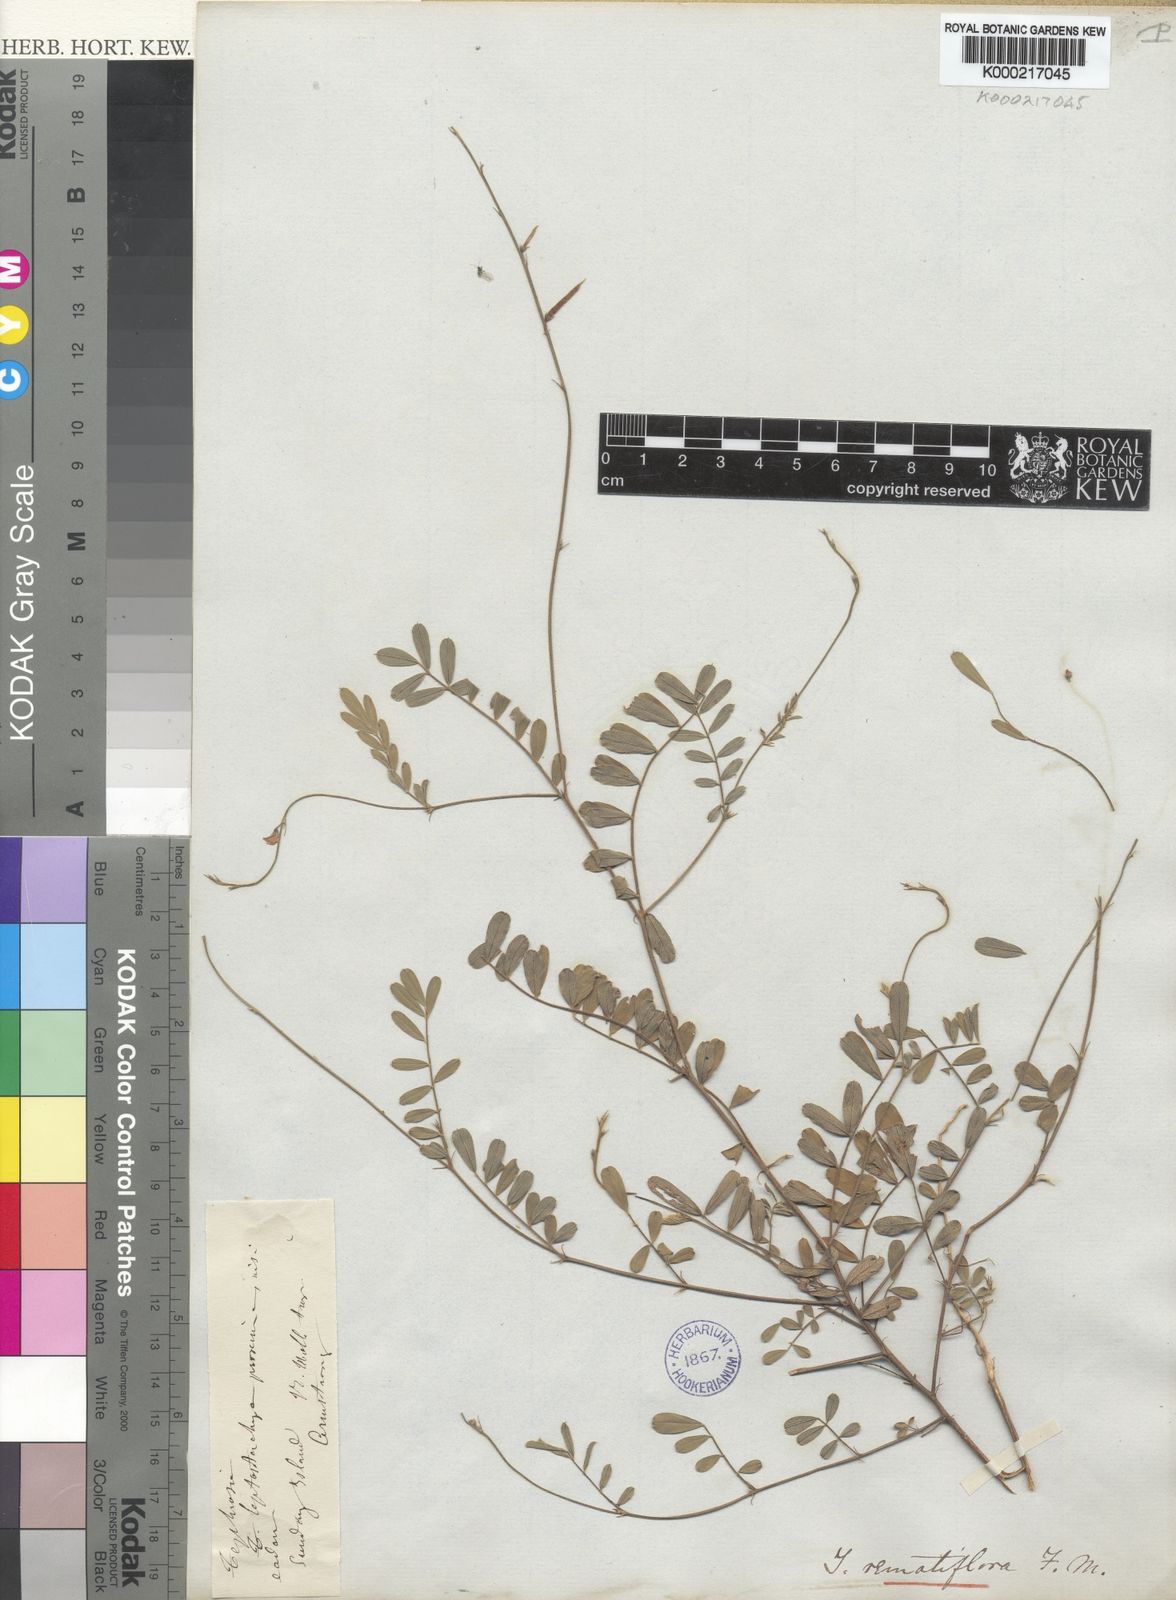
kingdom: Plantae
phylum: Tracheophyta
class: Magnoliopsida
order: Fabales
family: Fabaceae
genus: Tephrosia
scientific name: Tephrosia remotiflora
